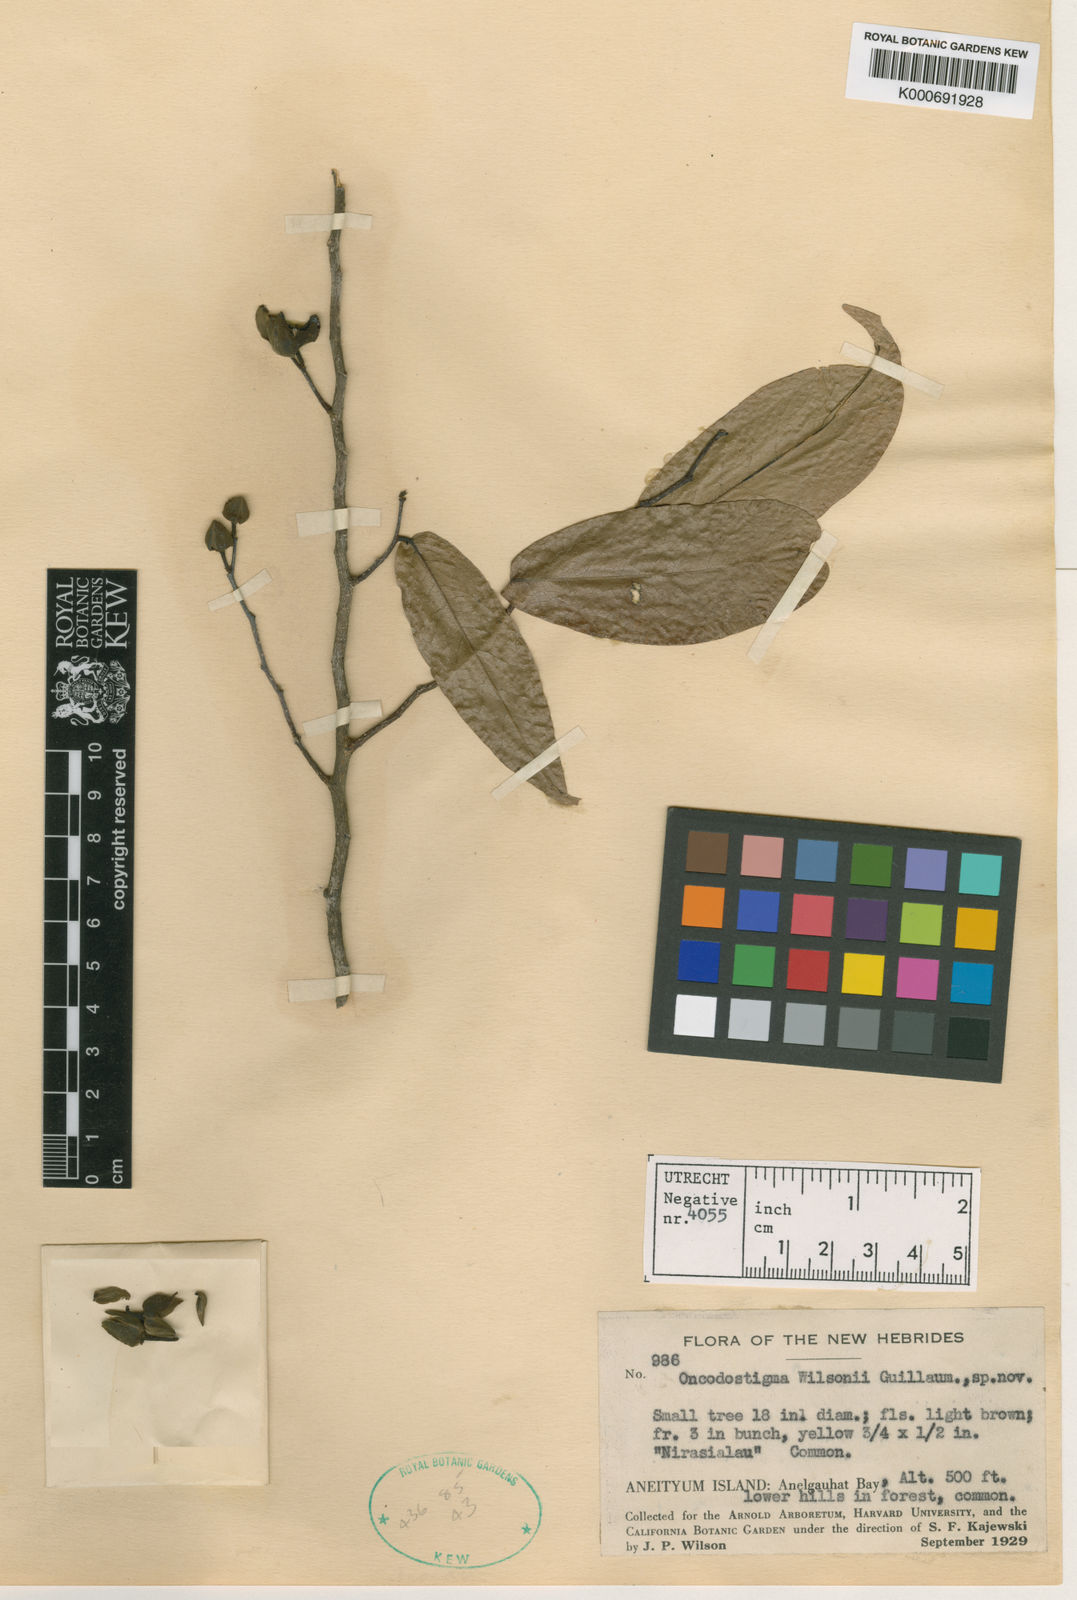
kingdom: Plantae
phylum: Tracheophyta
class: Magnoliopsida
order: Magnoliales
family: Annonaceae
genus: Meiogyne
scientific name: Meiogyne cylindrocarpa
